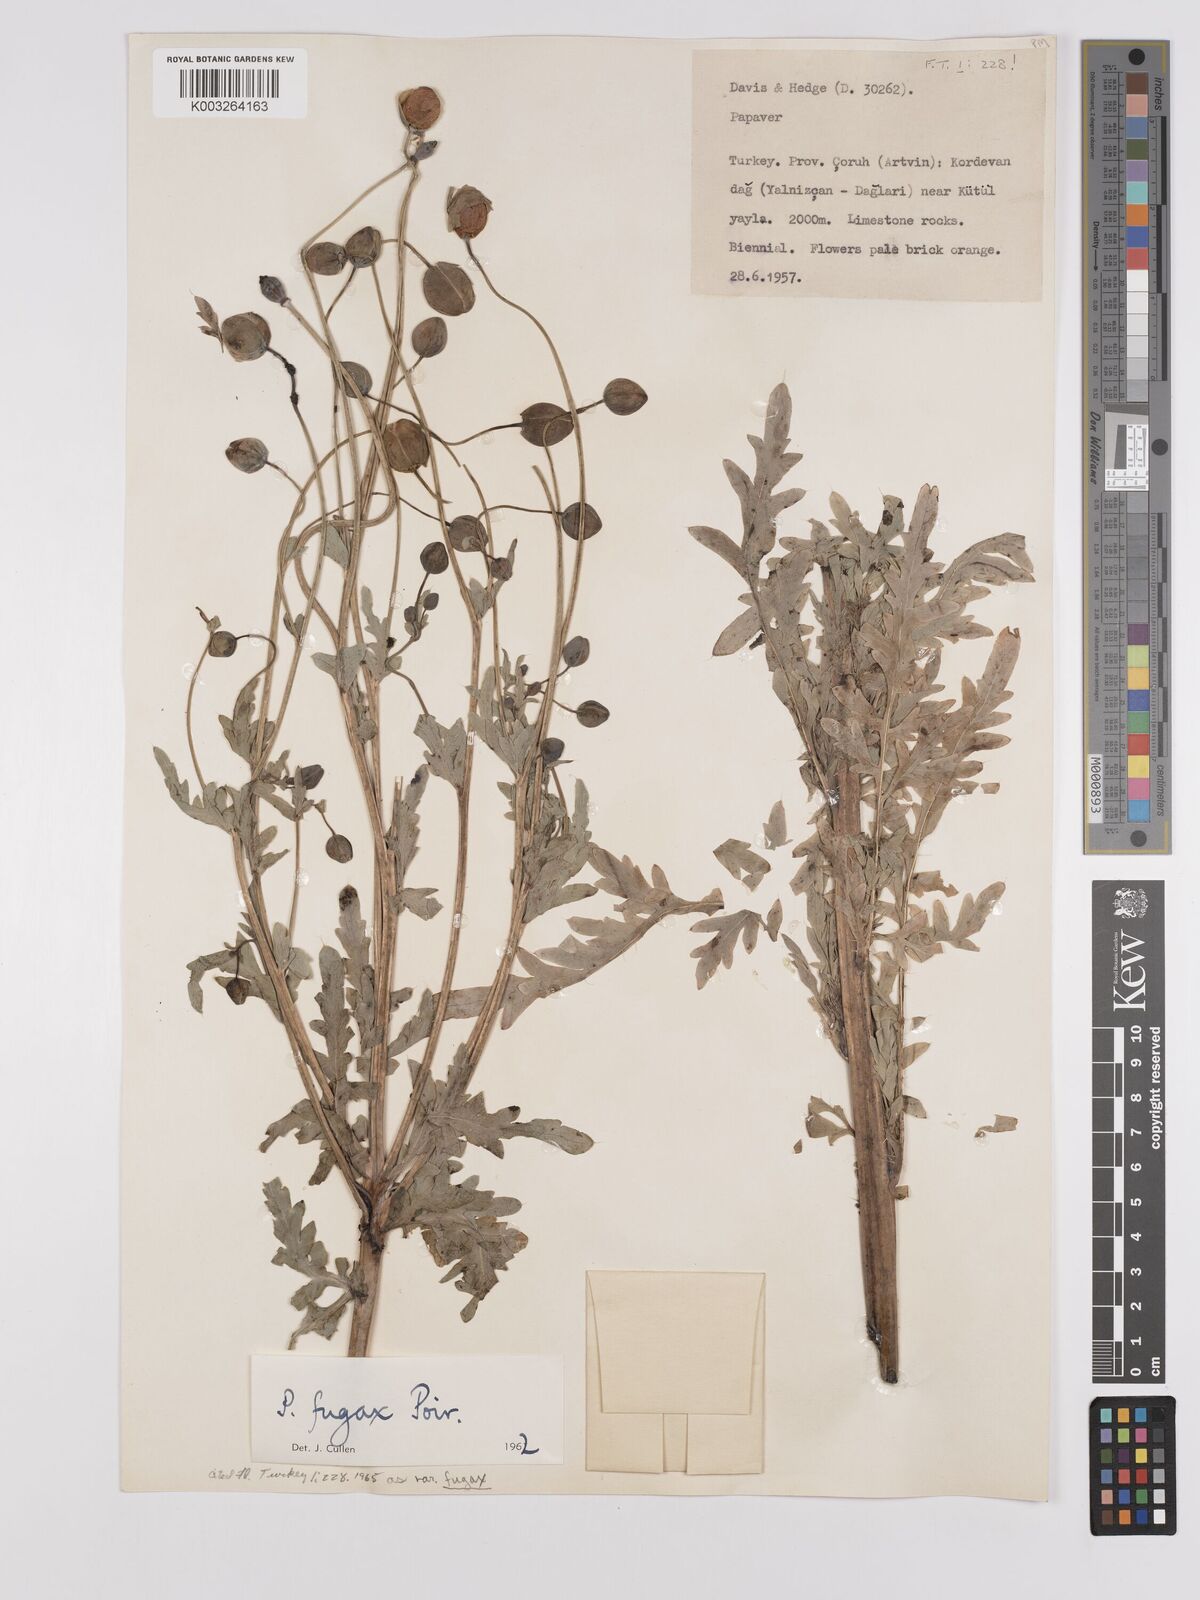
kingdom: Plantae
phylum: Tracheophyta
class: Magnoliopsida
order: Ranunculales
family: Papaveraceae
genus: Papaver
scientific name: Papaver armeniacum
